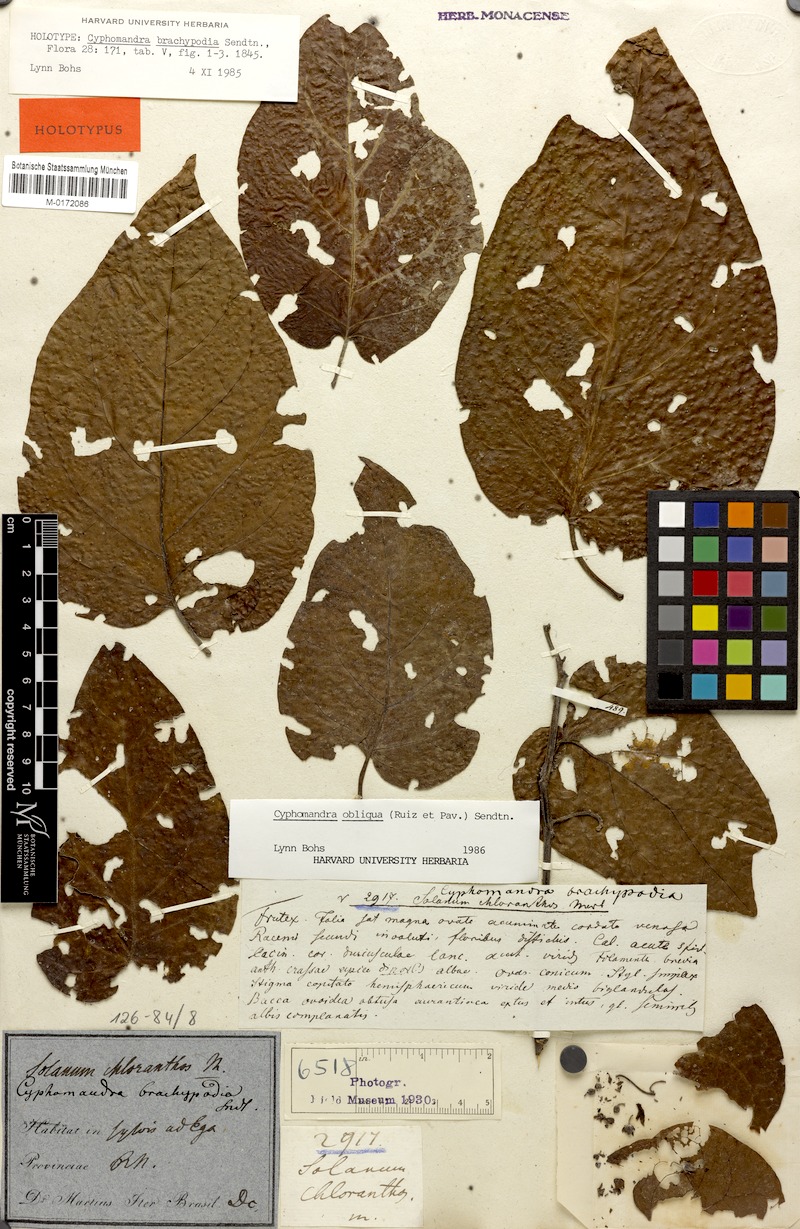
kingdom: Plantae
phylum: Tracheophyta
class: Magnoliopsida
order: Solanales
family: Solanaceae
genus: Solanum
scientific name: Solanum obliquum
